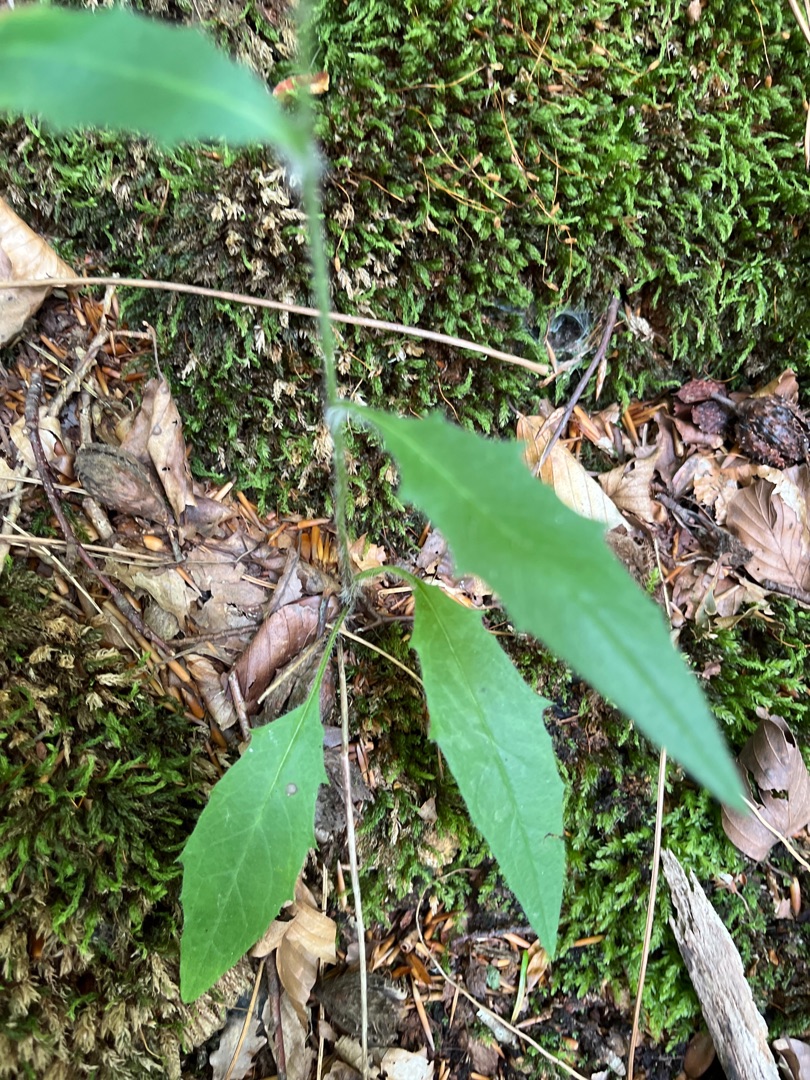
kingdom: Plantae
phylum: Tracheophyta
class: Magnoliopsida
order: Asterales
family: Asteraceae
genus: Hieracium
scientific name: Hieracium
